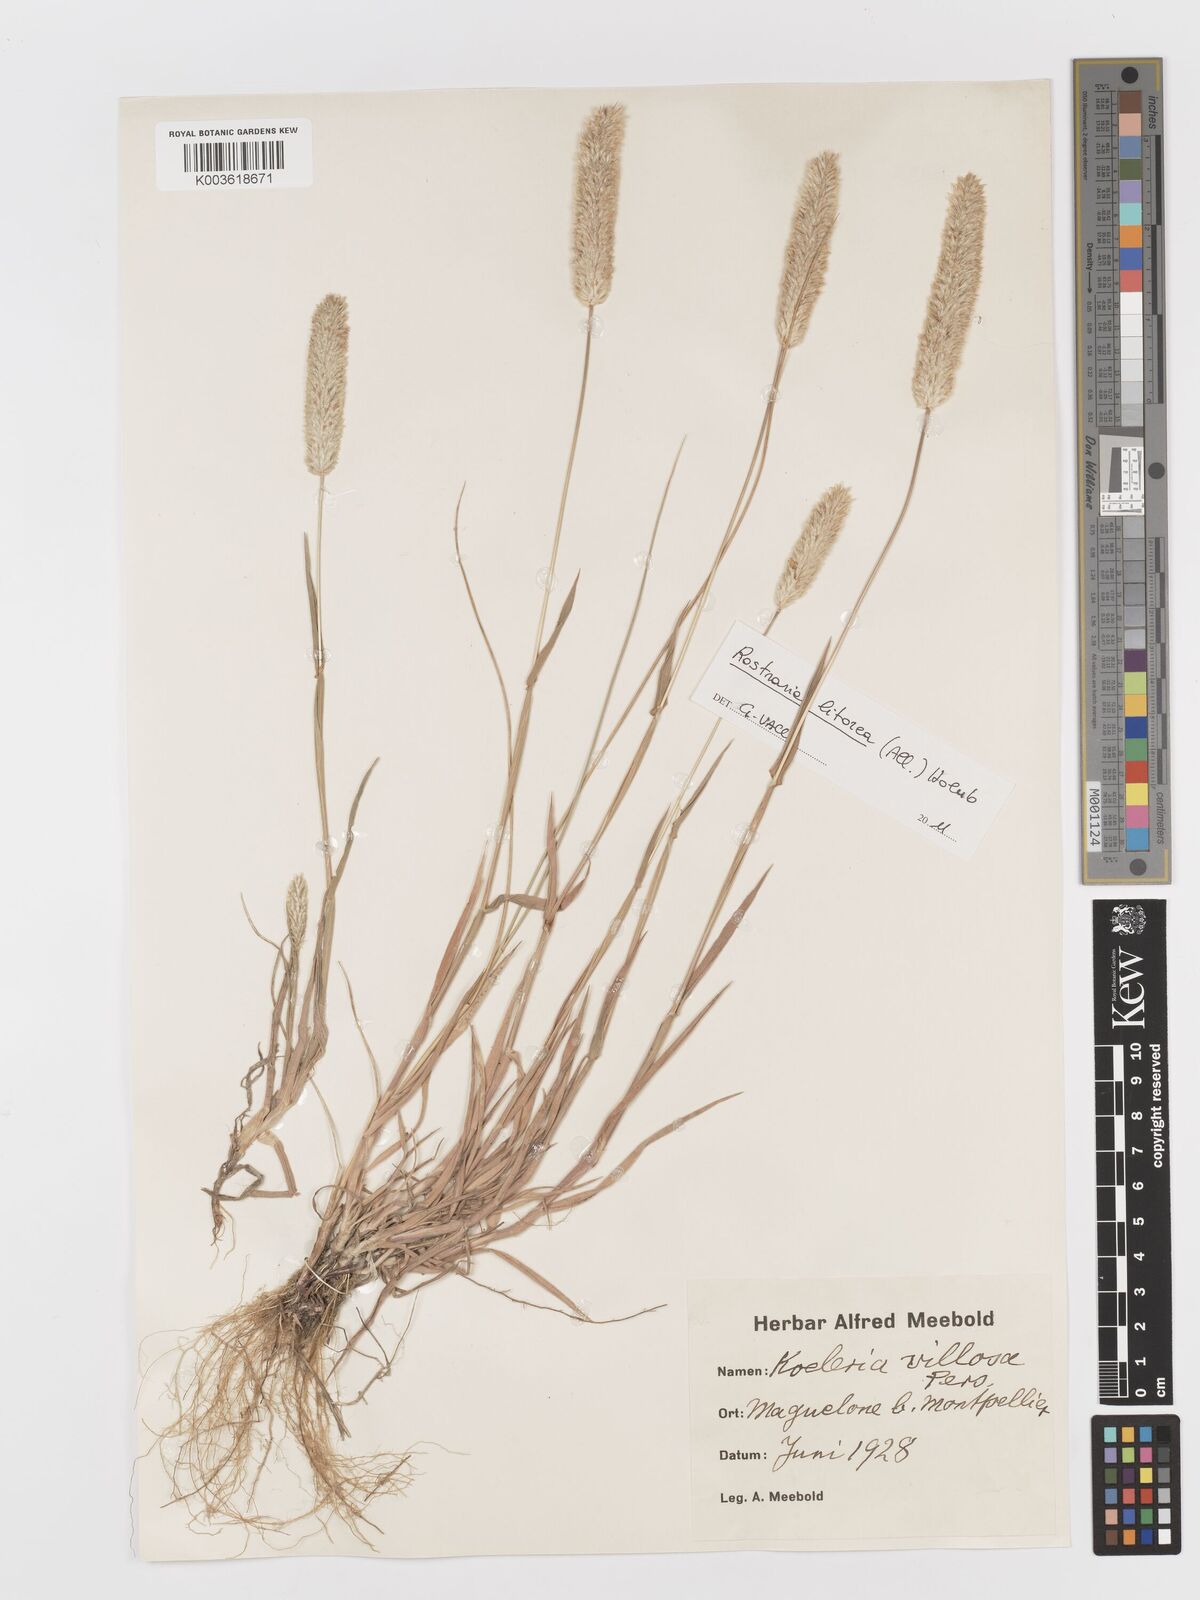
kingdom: Plantae
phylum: Tracheophyta
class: Liliopsida
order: Poales
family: Poaceae
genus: Rostraria
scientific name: Rostraria
